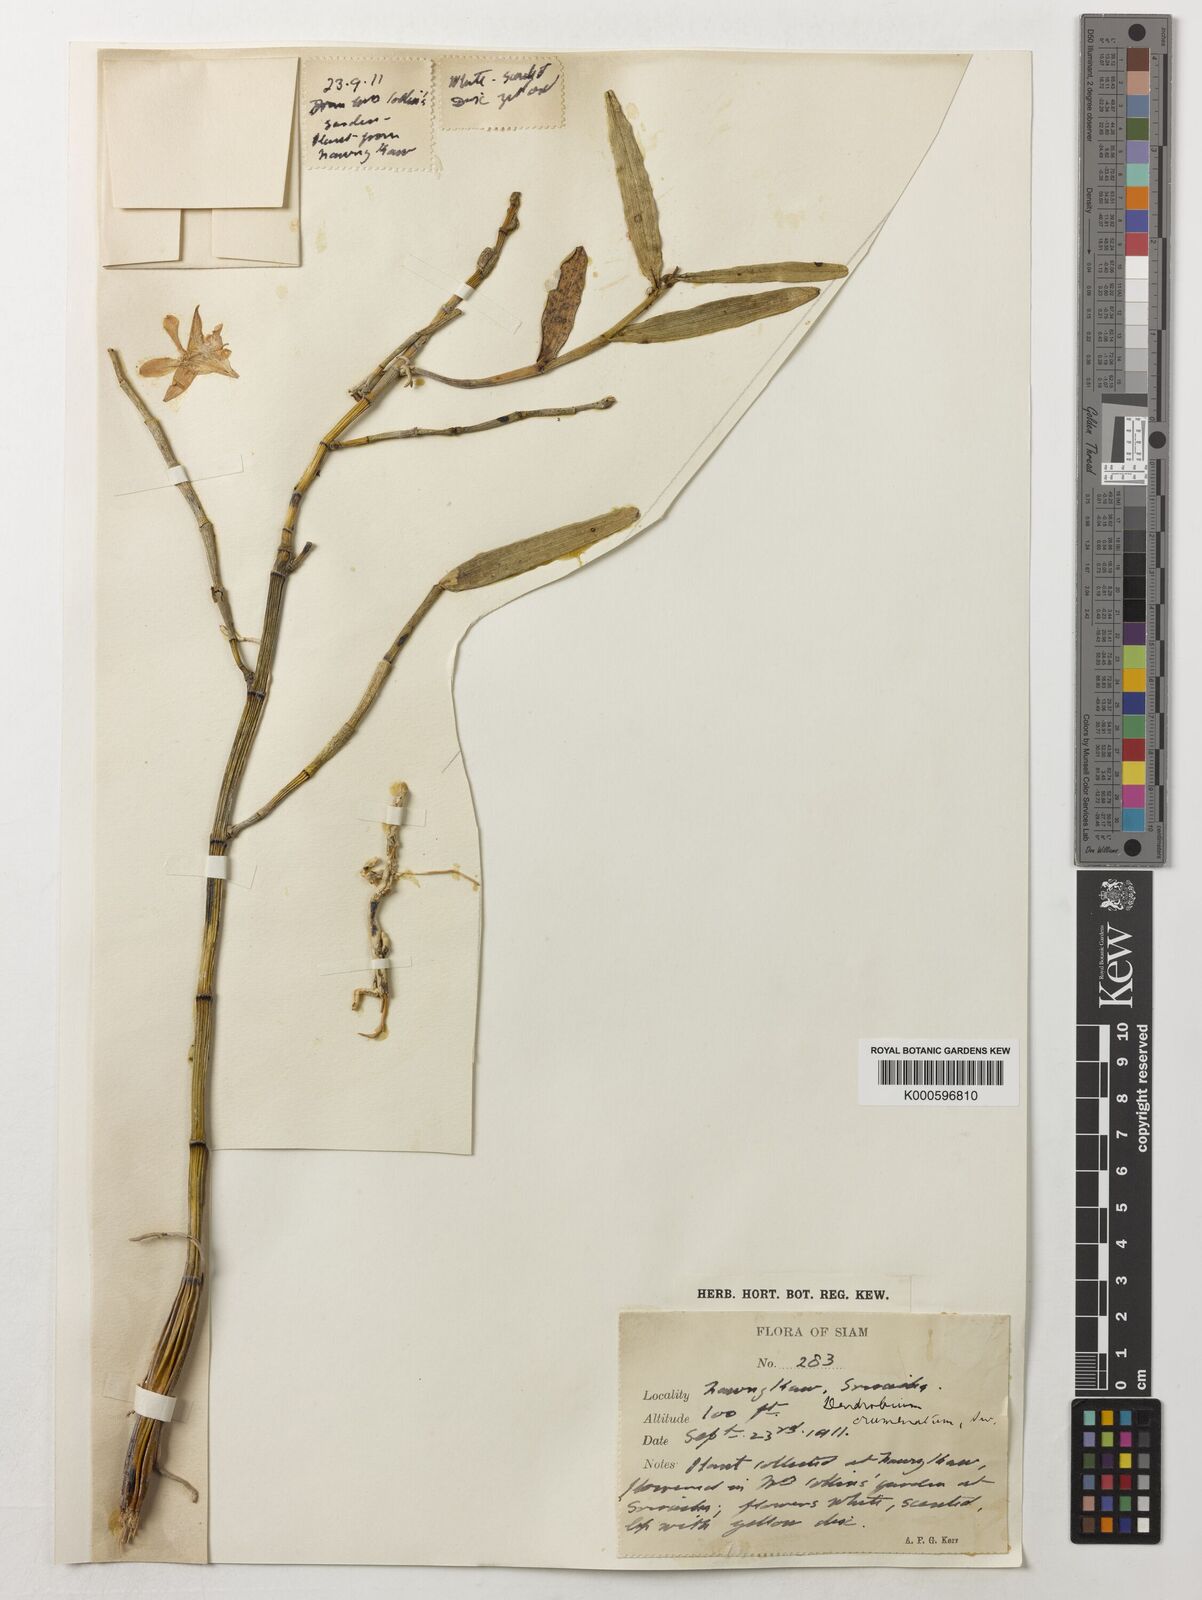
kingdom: Plantae
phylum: Tracheophyta
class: Liliopsida
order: Asparagales
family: Orchidaceae
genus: Dendrobium
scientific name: Dendrobium crumenatum
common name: Orchid
